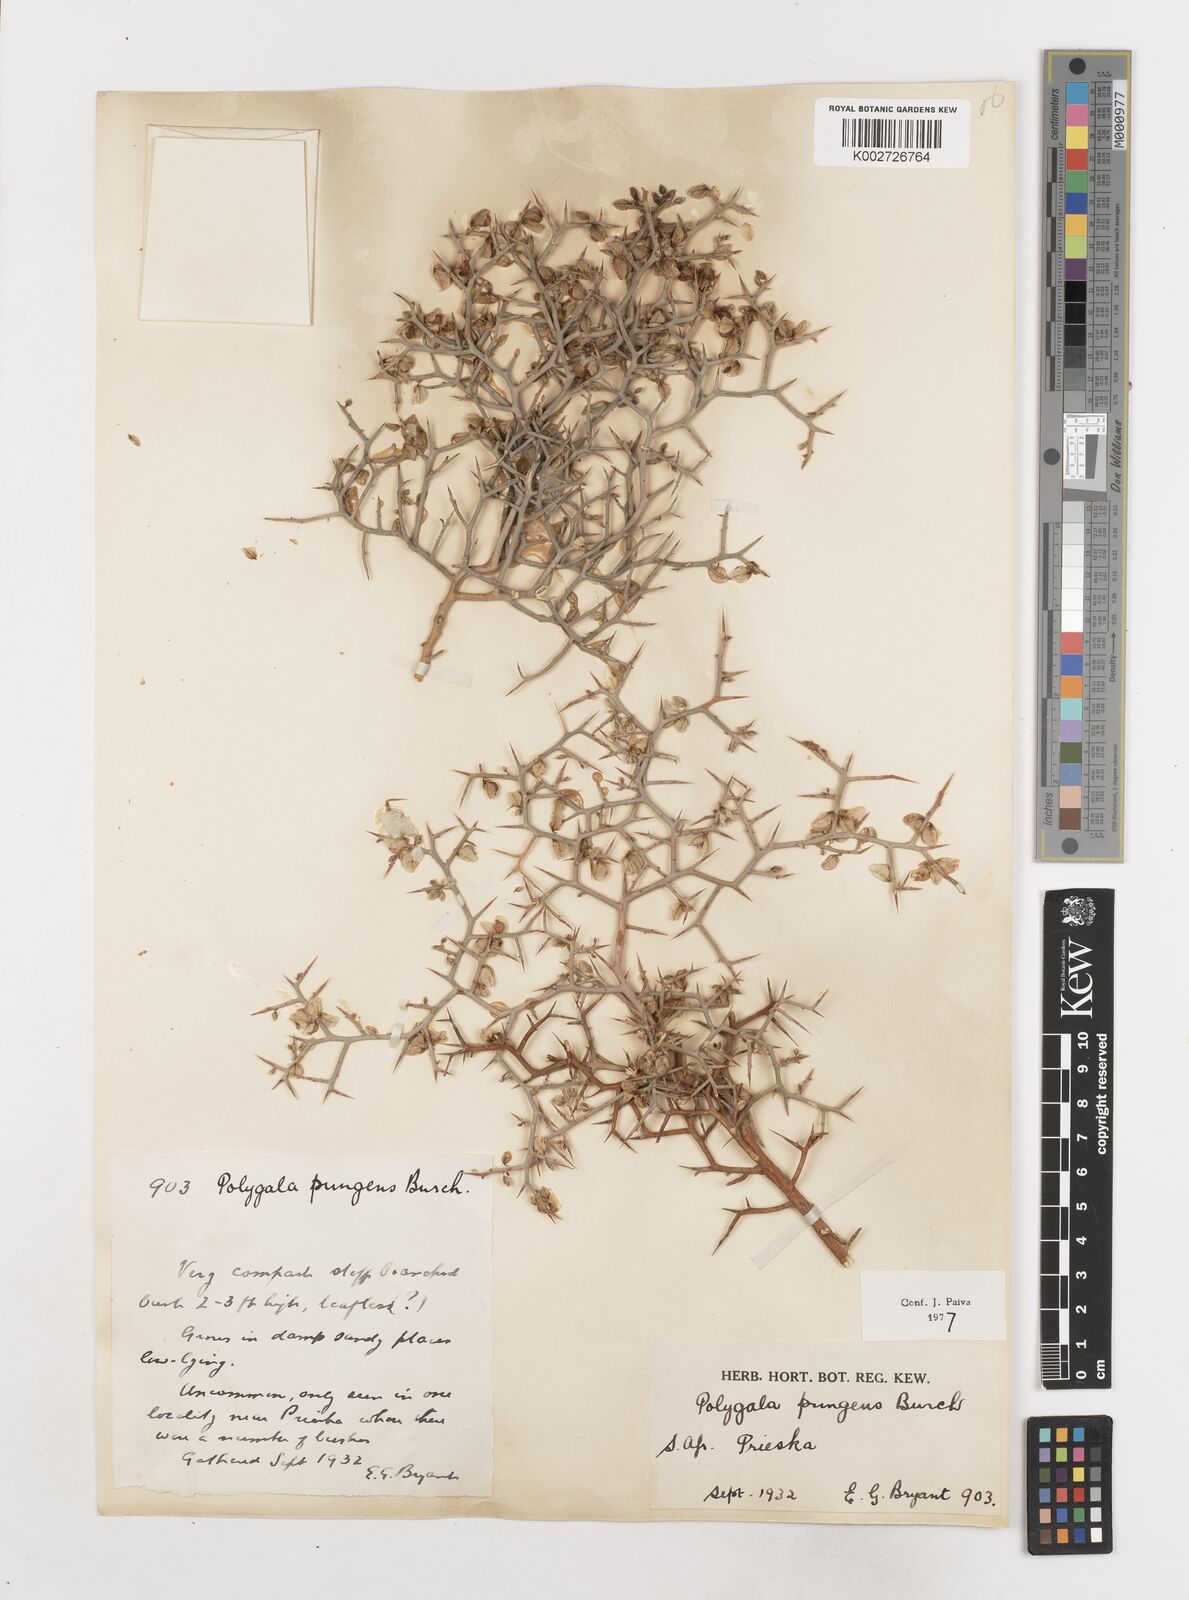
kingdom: Plantae
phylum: Tracheophyta
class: Magnoliopsida
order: Fabales
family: Polygalaceae
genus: Polygala
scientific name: Polygala pungens
